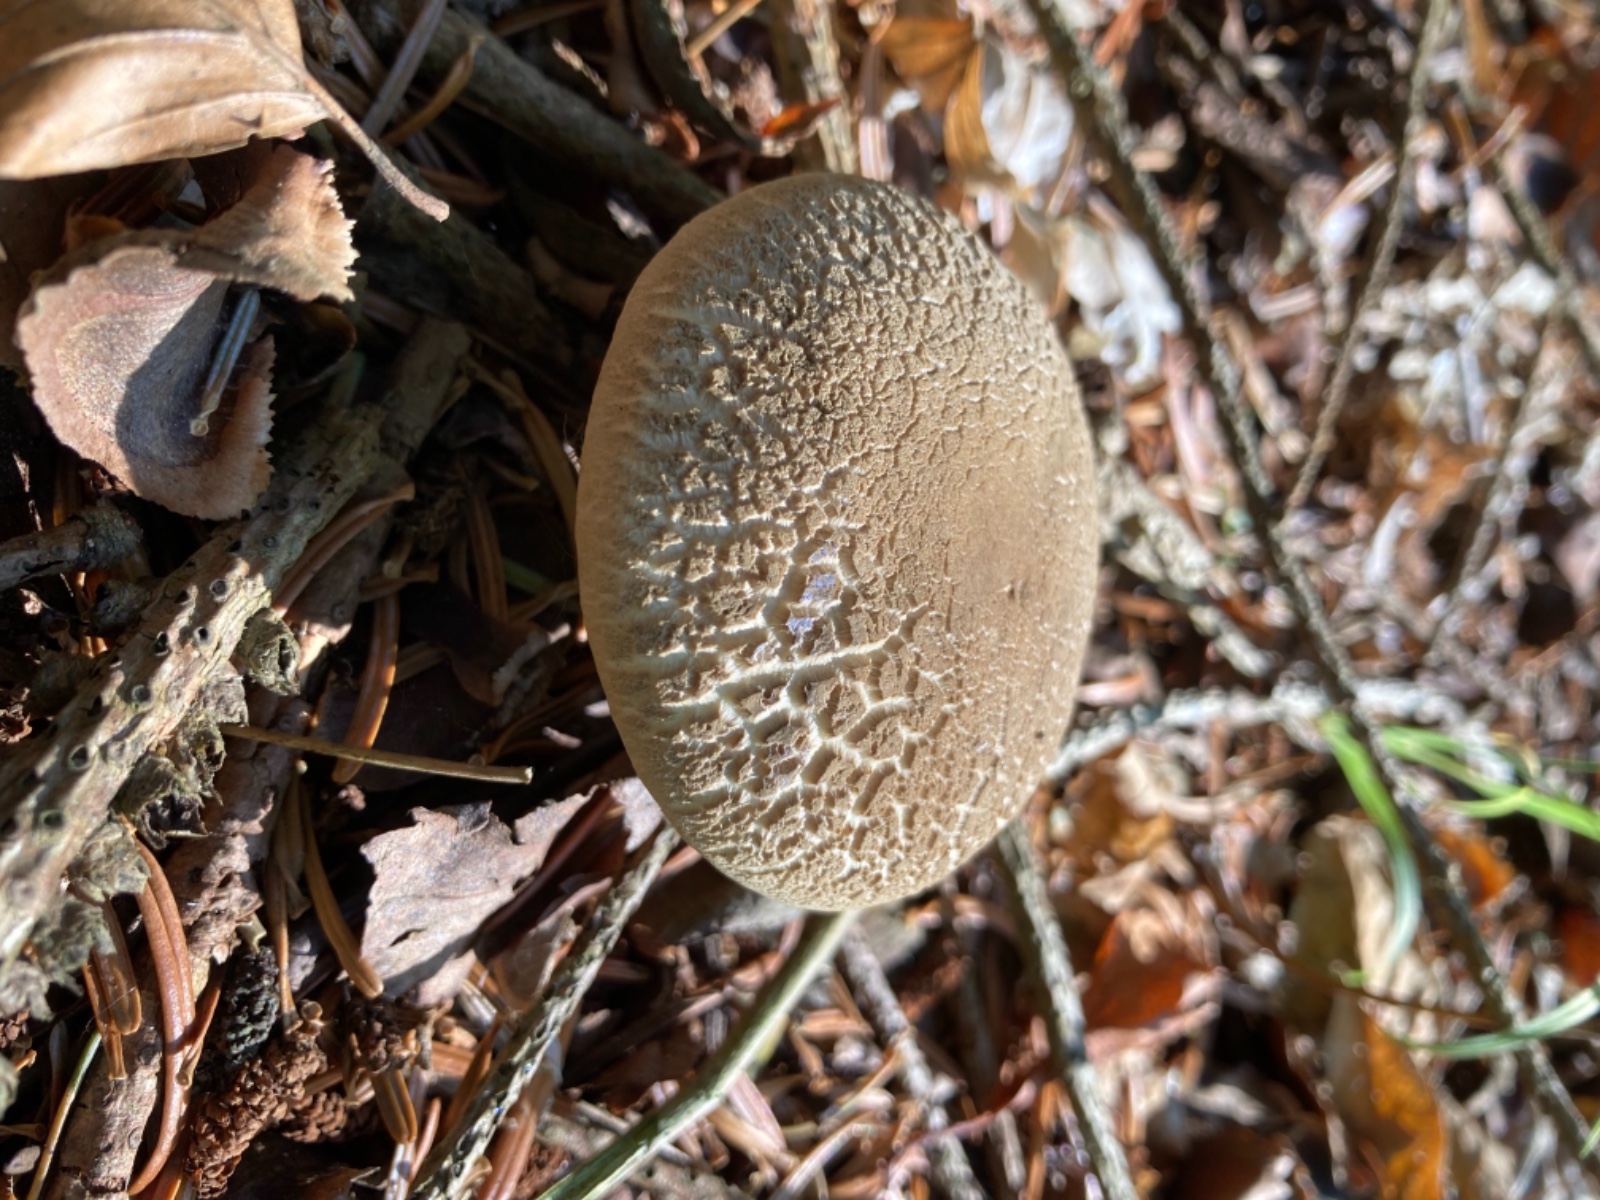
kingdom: Fungi
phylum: Basidiomycota
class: Agaricomycetes
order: Boletales
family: Boletaceae
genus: Xerocomellus
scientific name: Xerocomellus
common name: dværgrørhat
